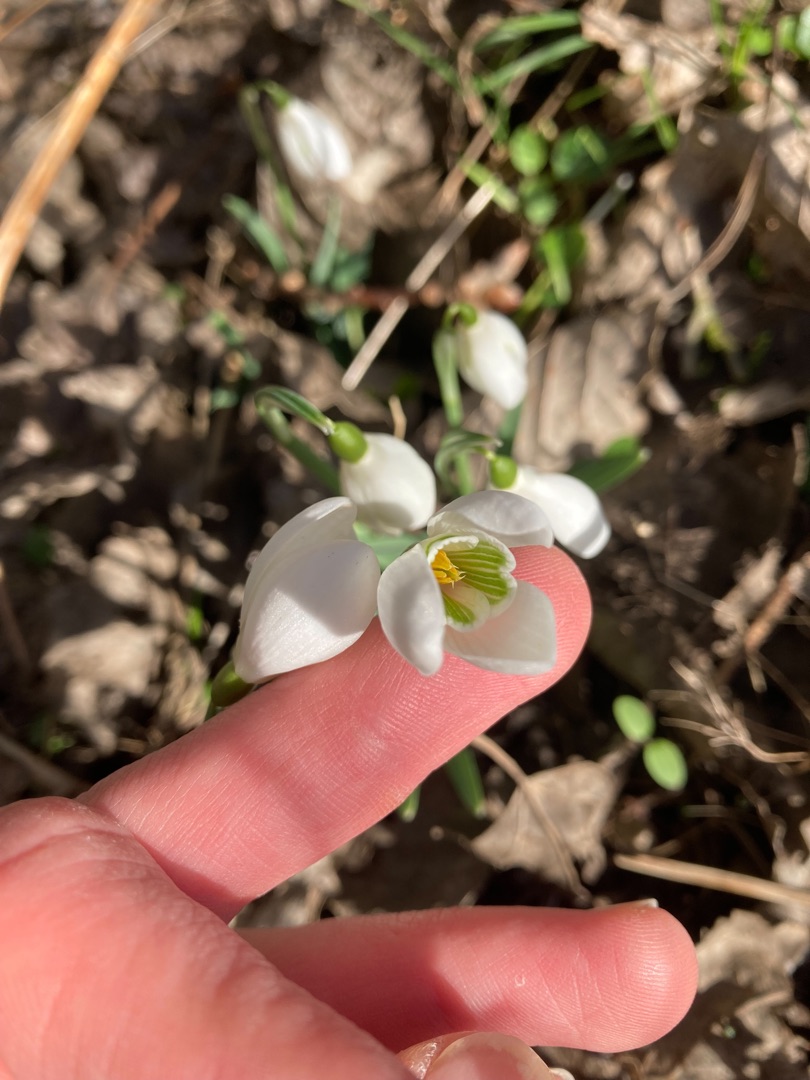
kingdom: Plantae
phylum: Tracheophyta
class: Liliopsida
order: Asparagales
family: Amaryllidaceae
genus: Galanthus
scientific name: Galanthus nivalis
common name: Vintergæk
